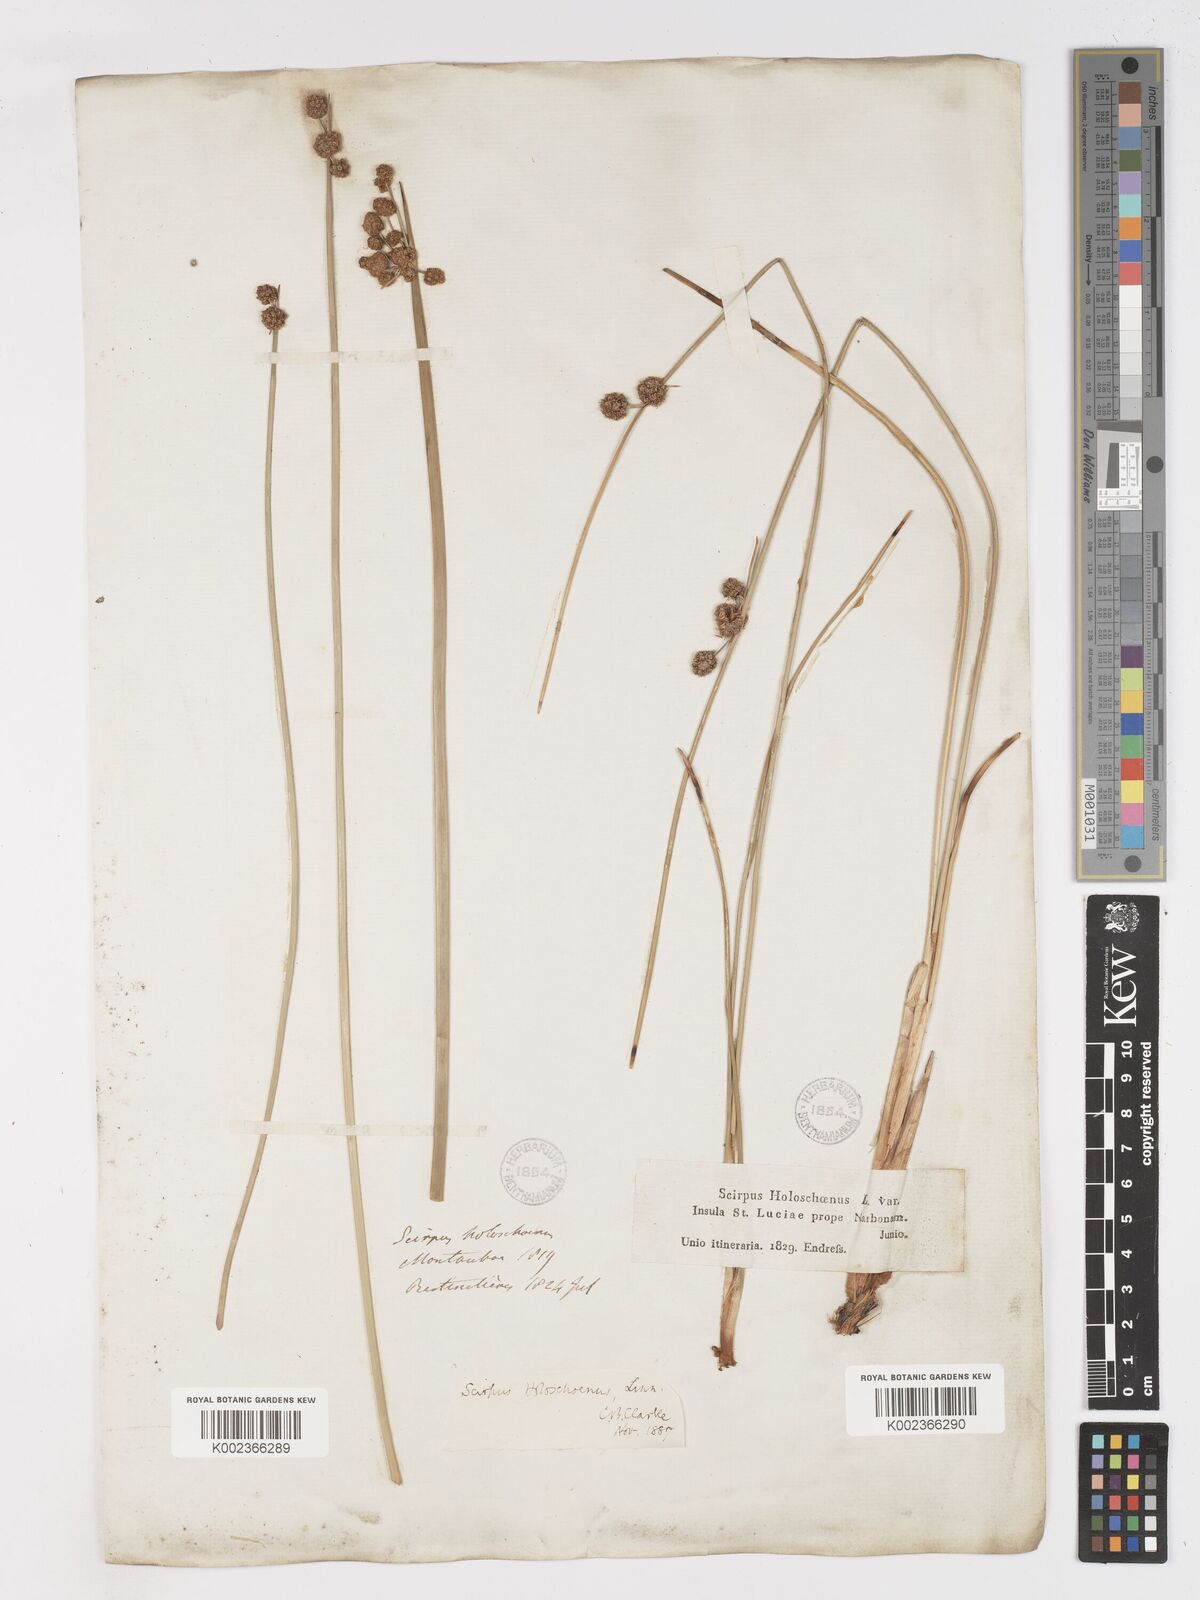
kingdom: Plantae
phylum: Tracheophyta
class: Liliopsida
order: Poales
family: Cyperaceae
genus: Scirpoides
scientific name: Scirpoides holoschoenus
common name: Round-headed club-rush
